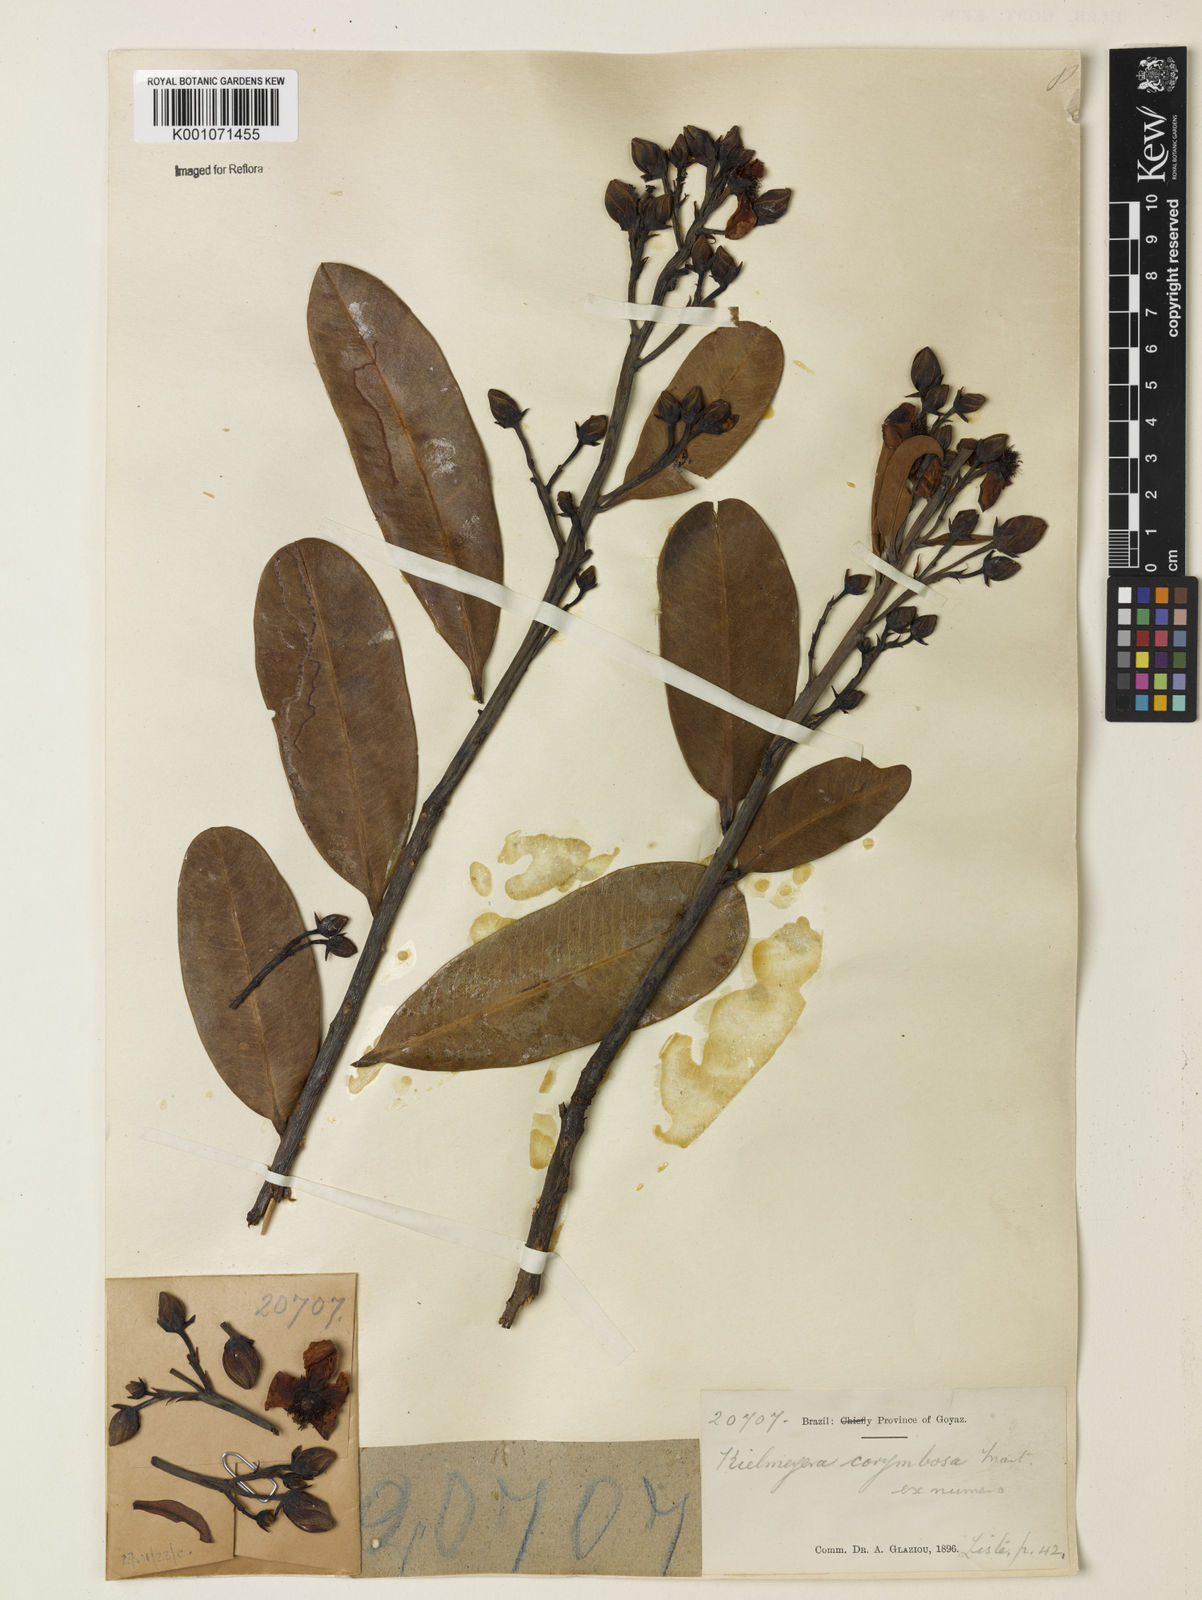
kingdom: Plantae
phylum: Tracheophyta
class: Magnoliopsida
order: Malpighiales
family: Calophyllaceae
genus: Kielmeyera
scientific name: Kielmeyera corymbosa
